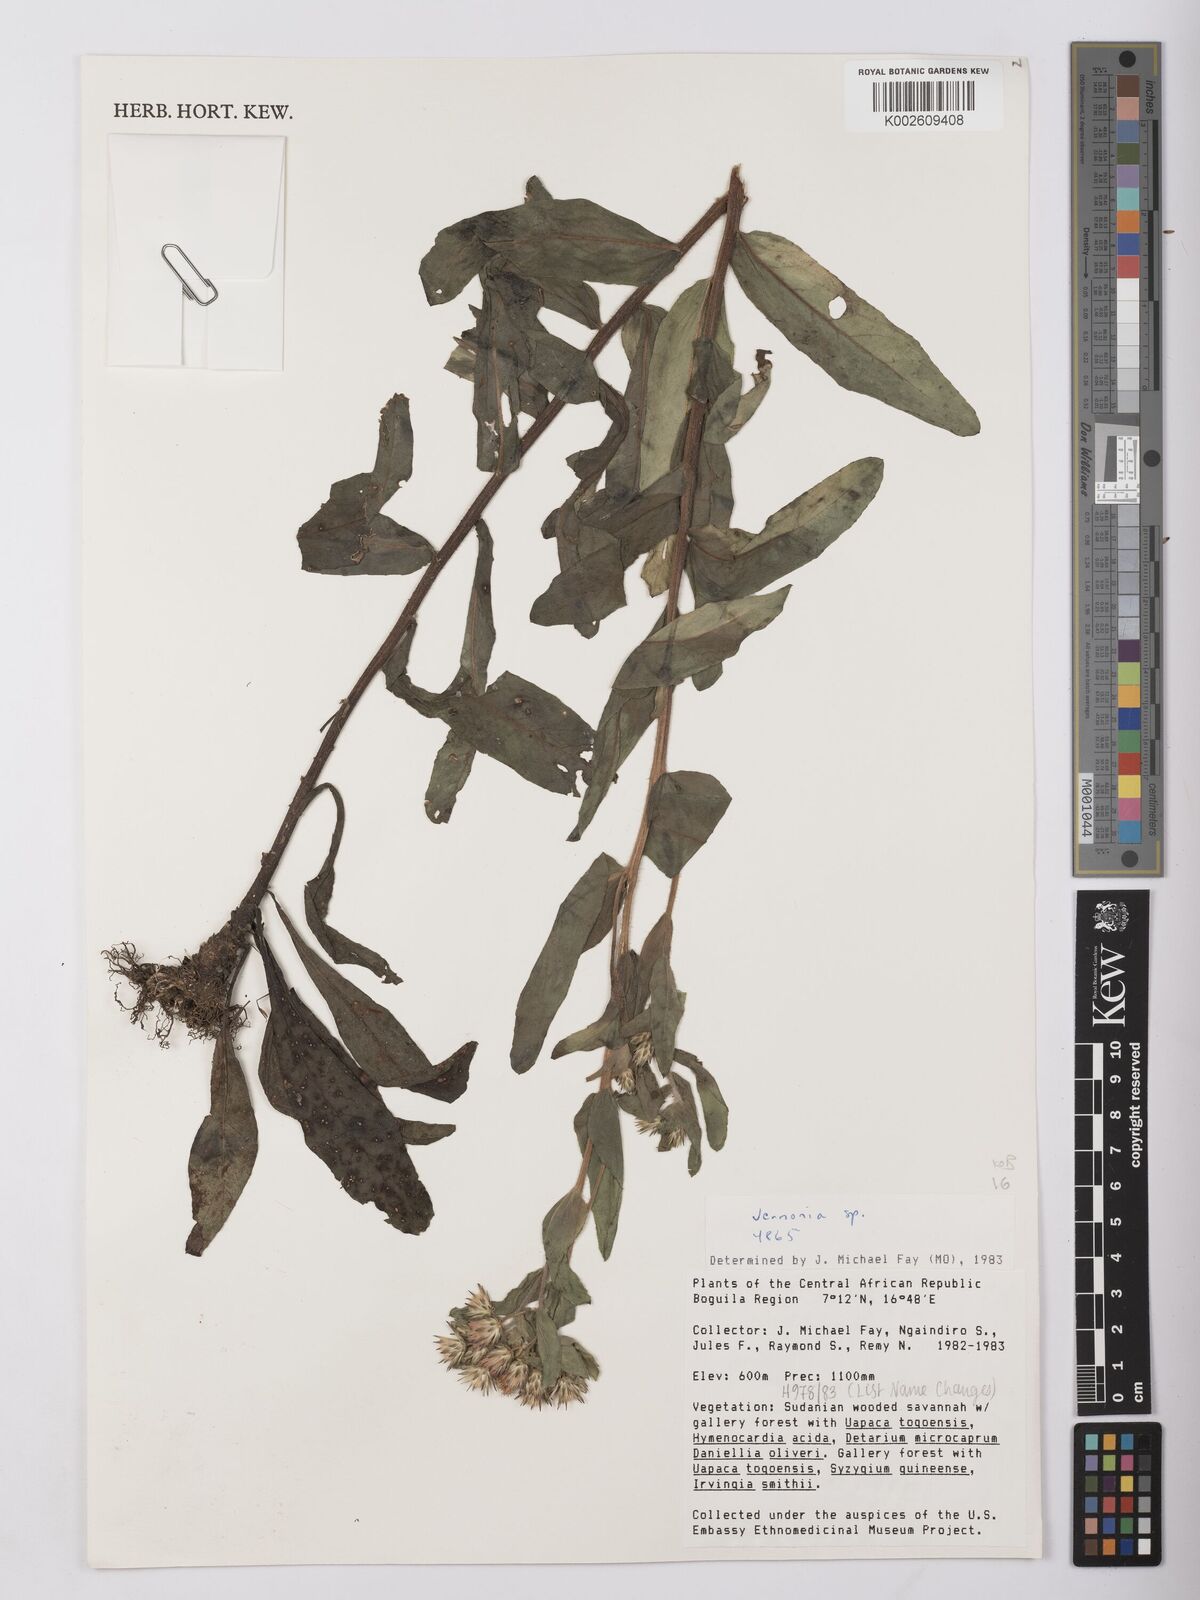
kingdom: Plantae
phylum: Tracheophyta
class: Magnoliopsida
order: Asterales
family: Asteraceae
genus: Vernonia
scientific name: Vernonia
